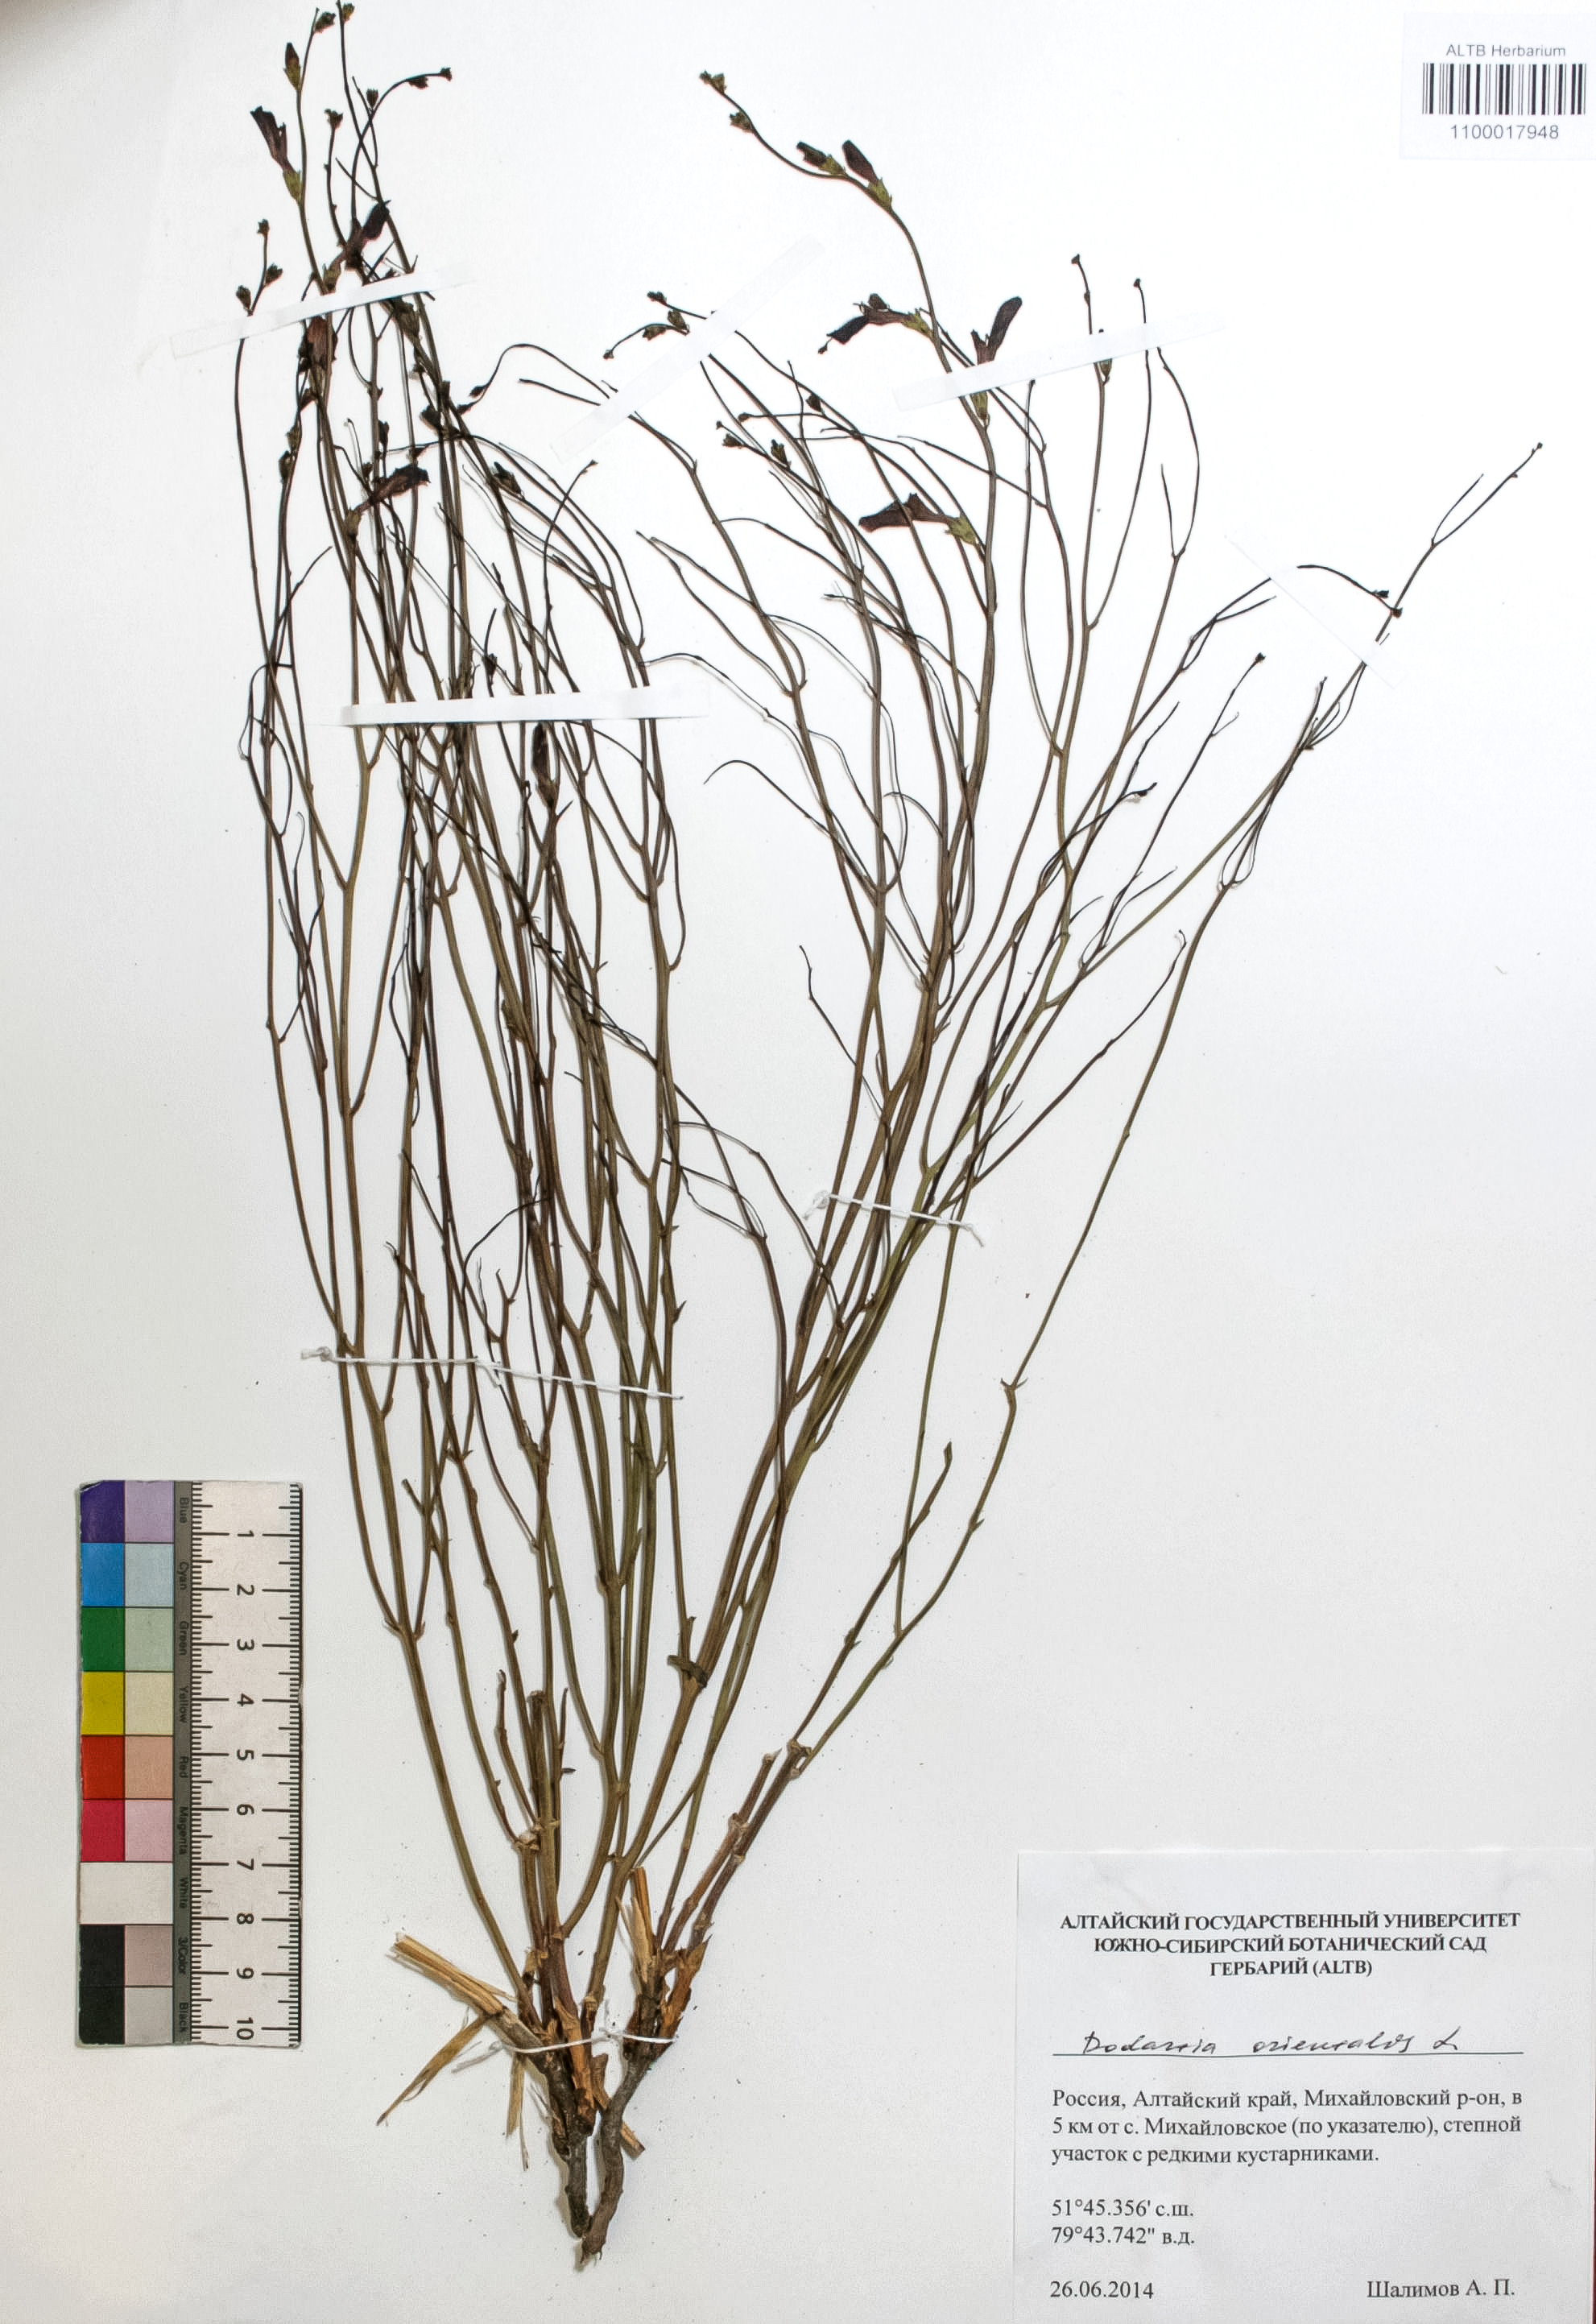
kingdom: Plantae
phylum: Tracheophyta
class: Magnoliopsida
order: Lamiales
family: Mazaceae
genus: Dodartia
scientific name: Dodartia orientalis
